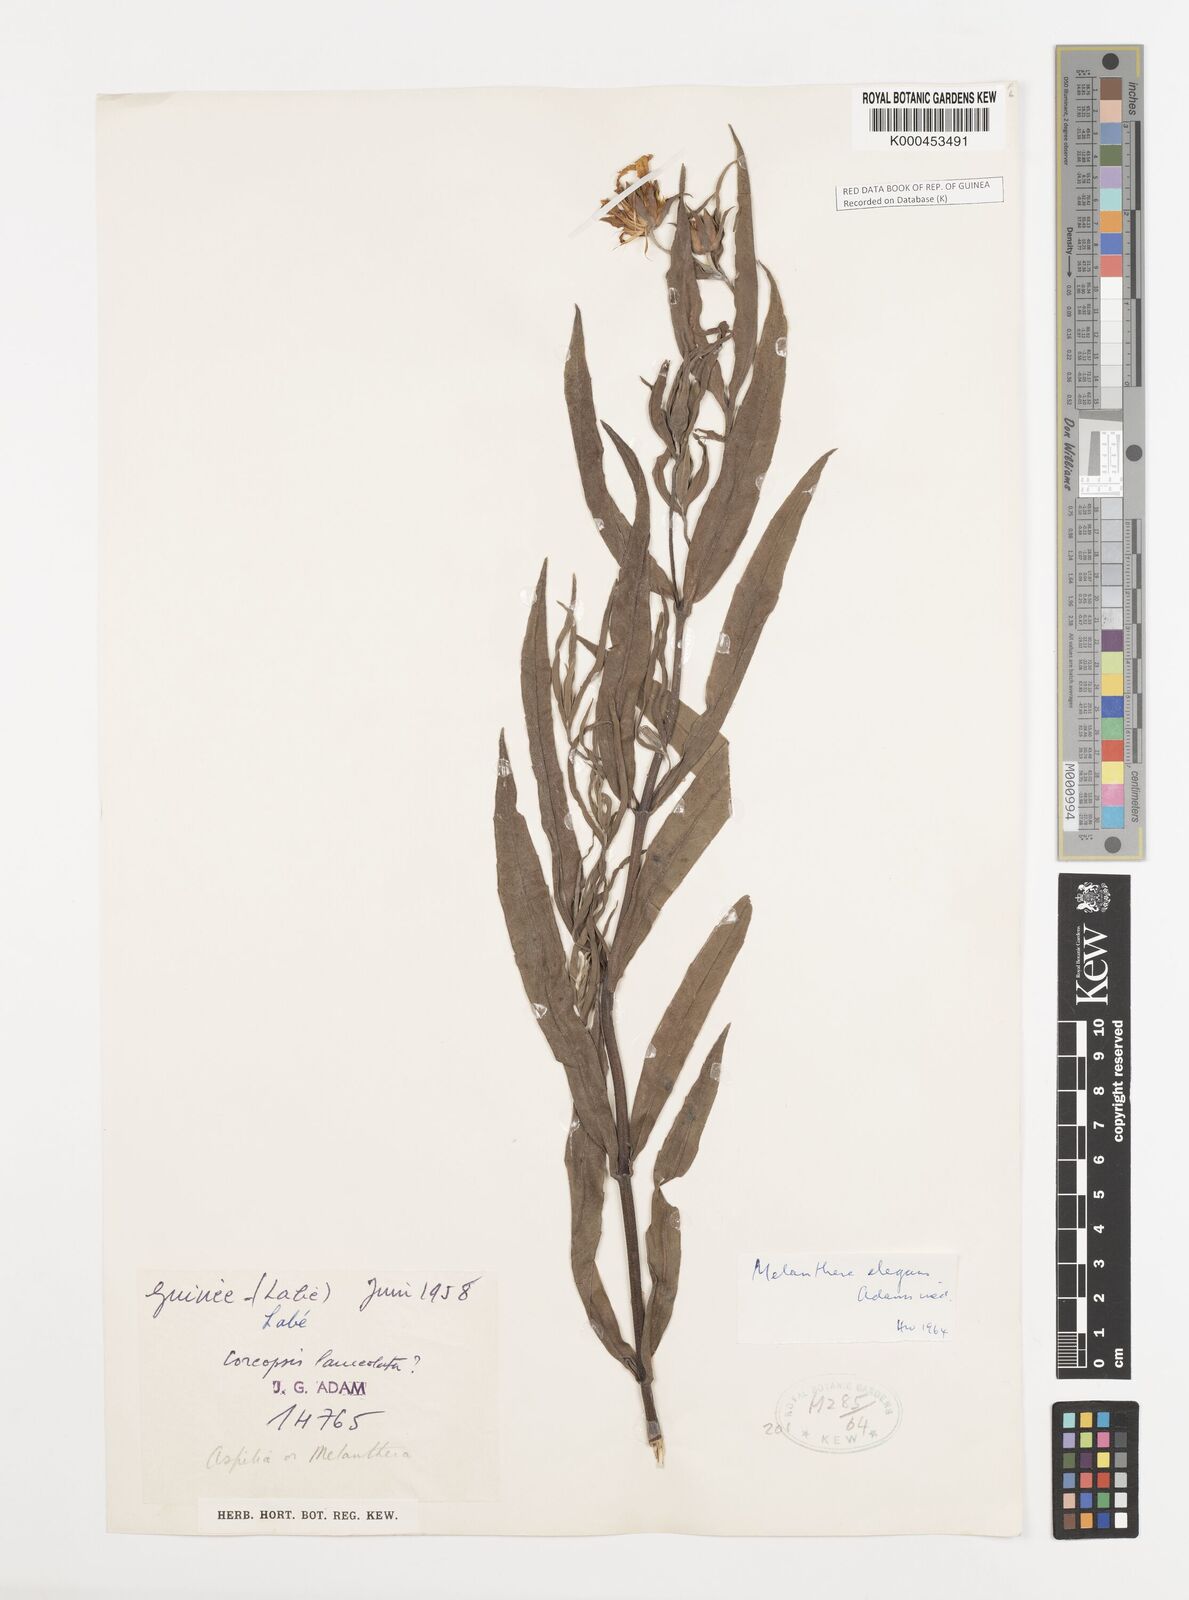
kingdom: Plantae
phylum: Tracheophyta
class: Magnoliopsida
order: Asterales
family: Asteraceae
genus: Aspilia
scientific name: Aspilia lisowskiana
